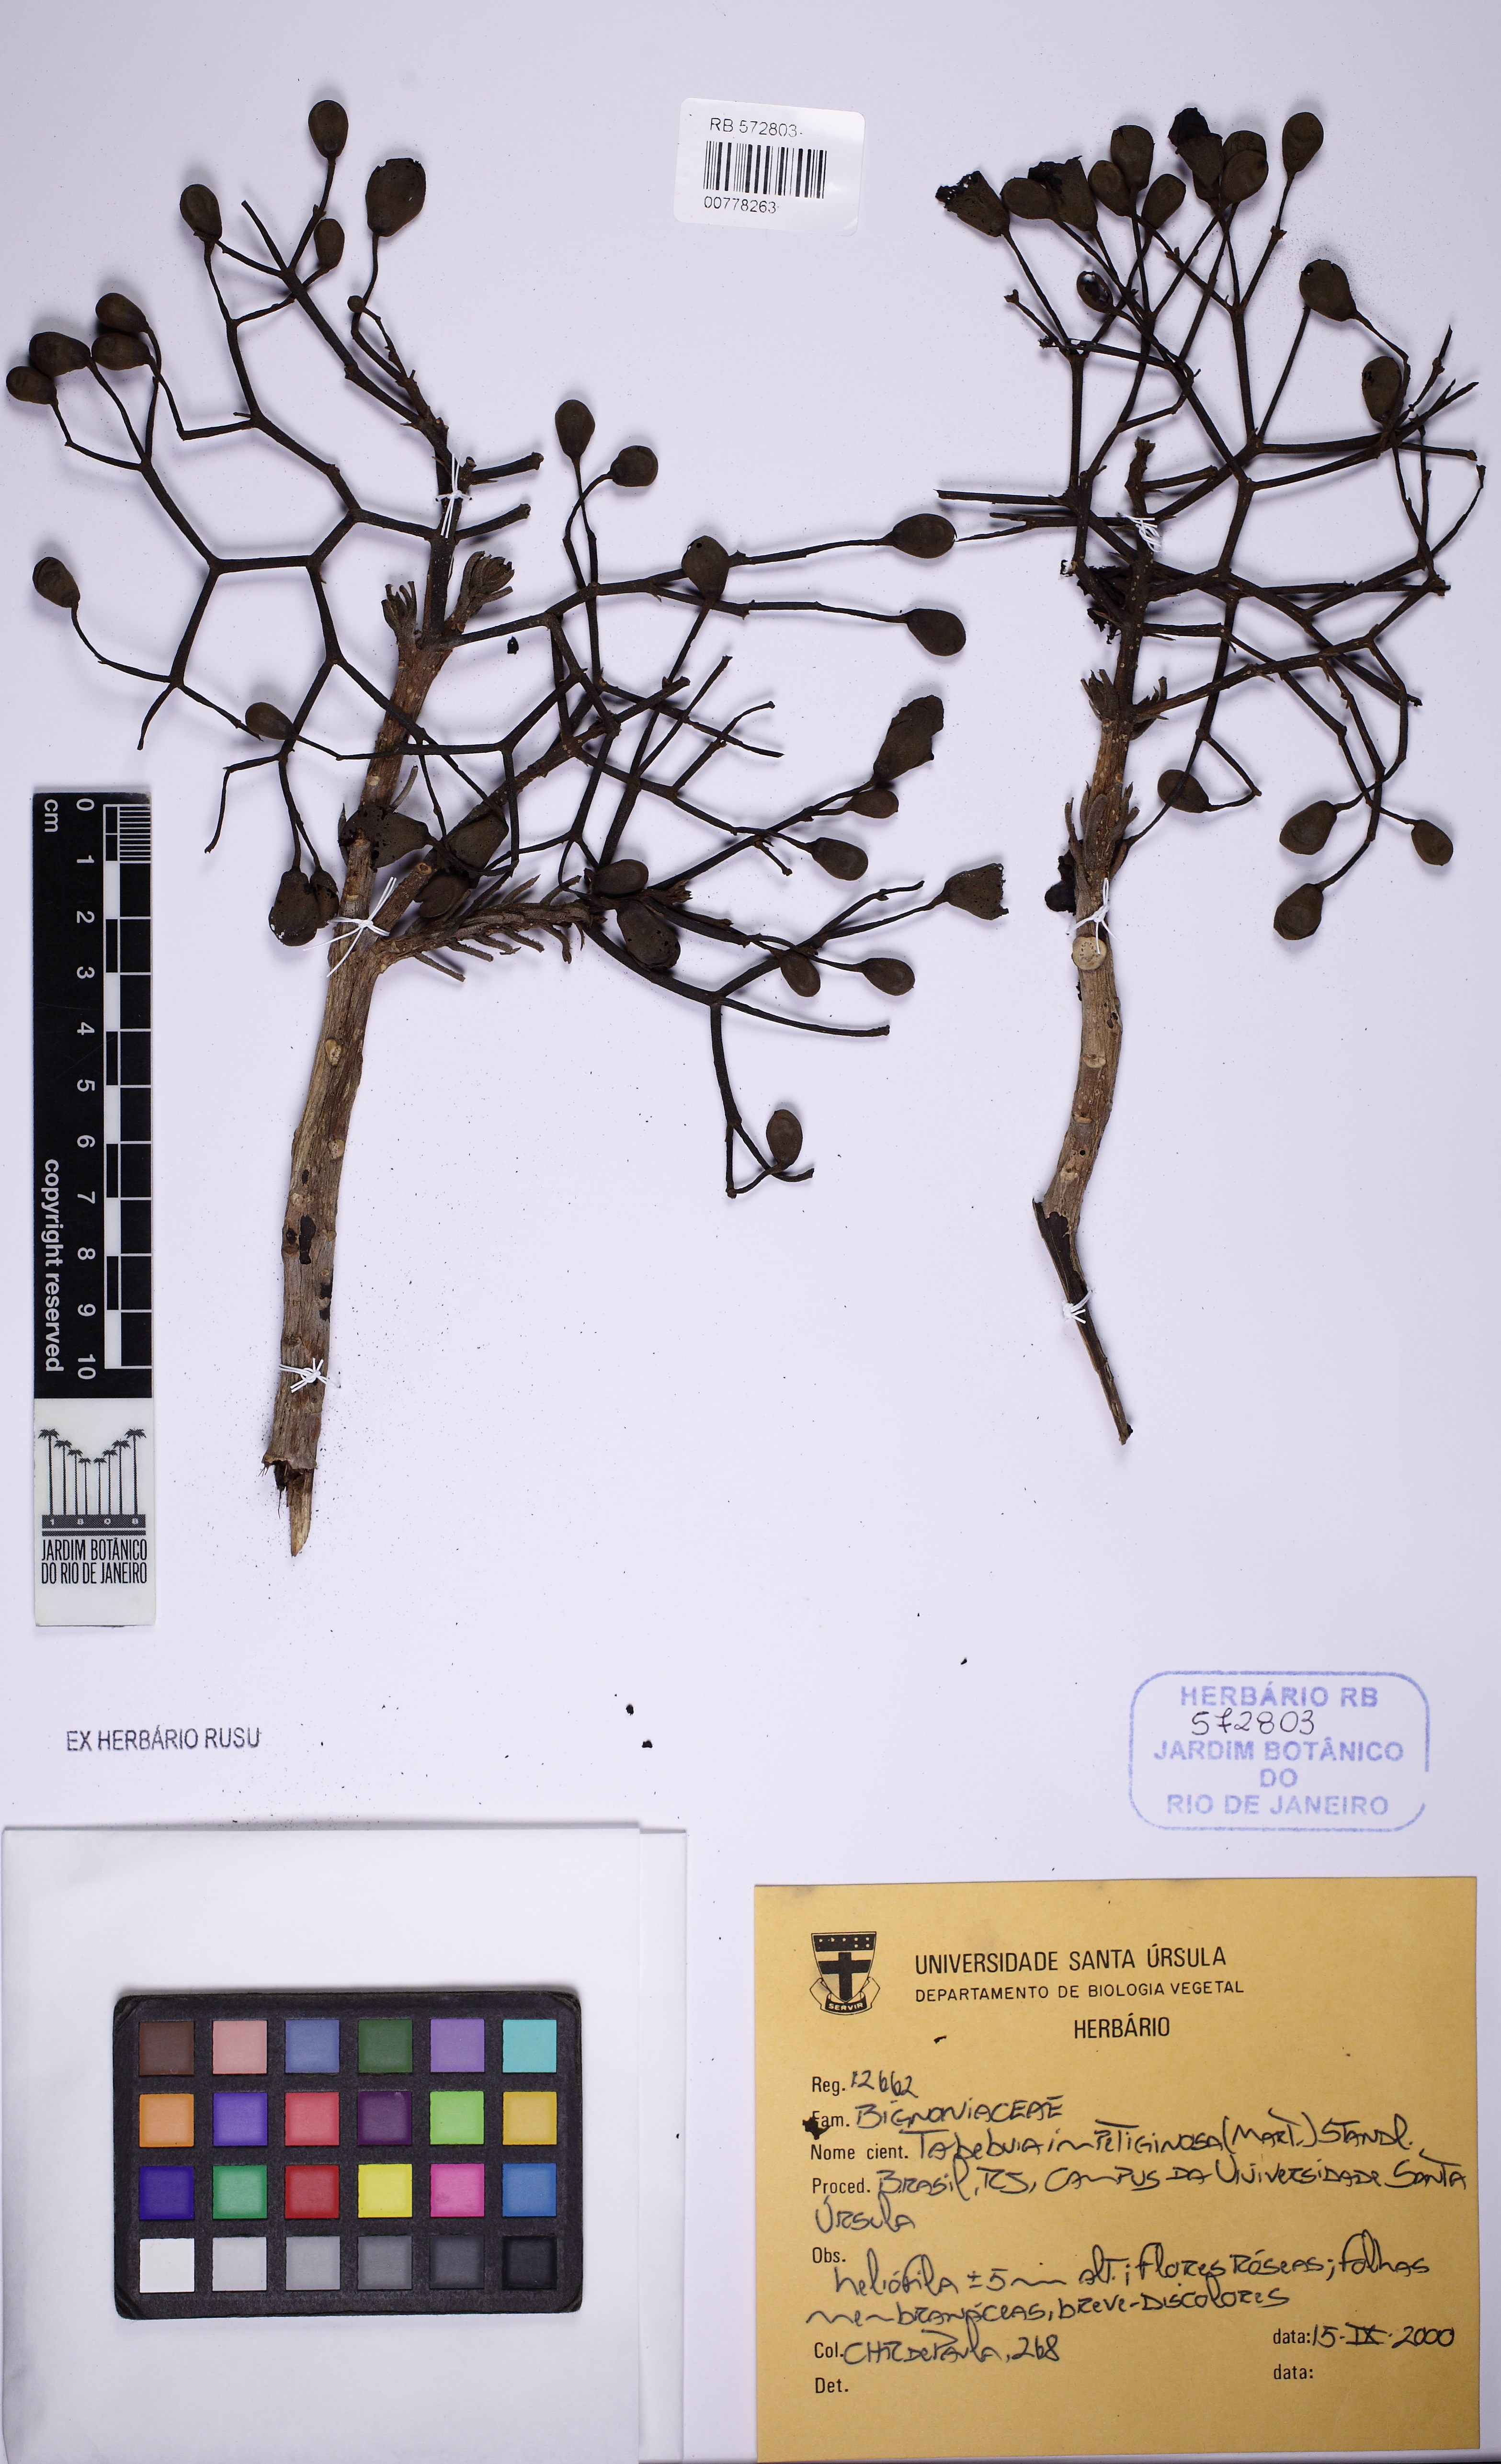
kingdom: Plantae
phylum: Tracheophyta
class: Magnoliopsida
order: Lamiales
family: Bignoniaceae
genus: Tabebuia
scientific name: Tabebuia rosea
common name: Pink poui
